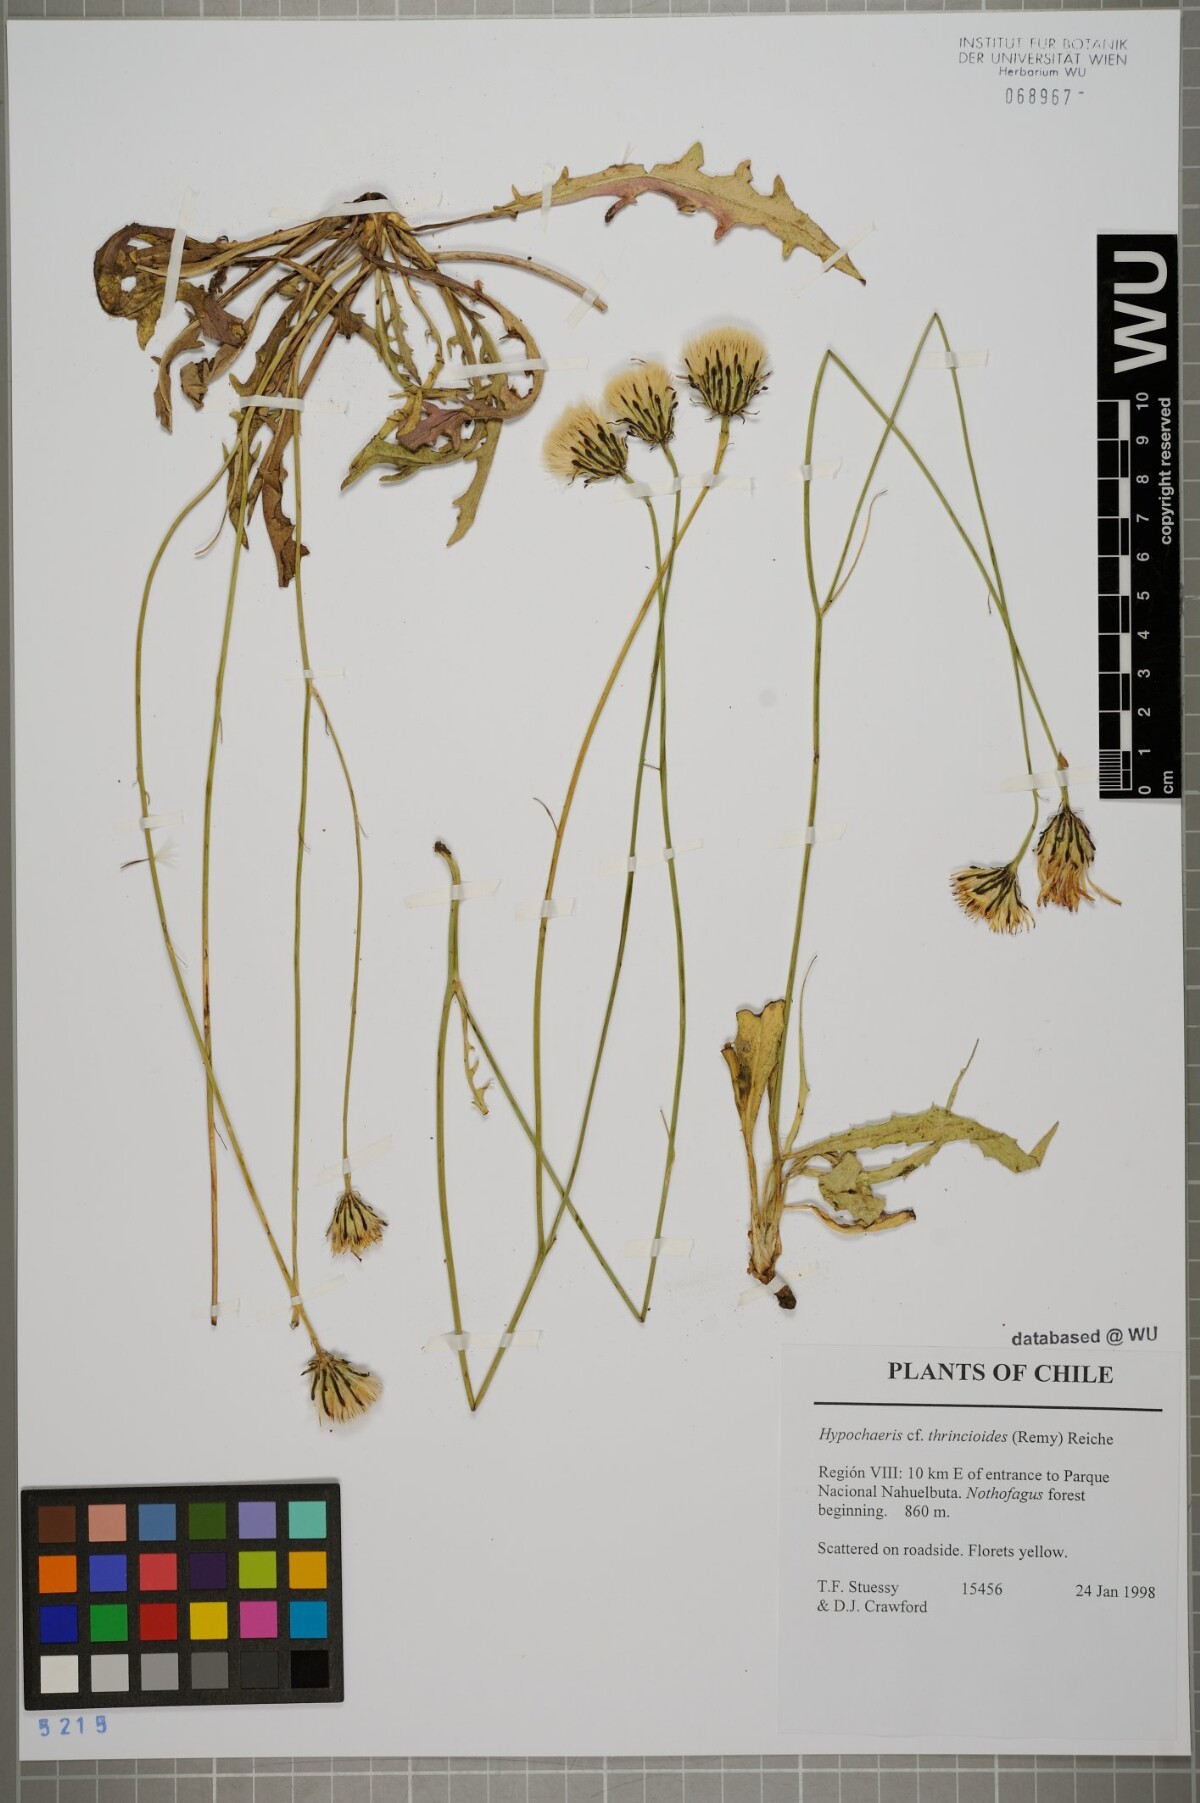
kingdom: Plantae
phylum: Tracheophyta
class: Magnoliopsida
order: Asterales
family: Asteraceae
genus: Hypochaeris
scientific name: Hypochaeris apargioides
